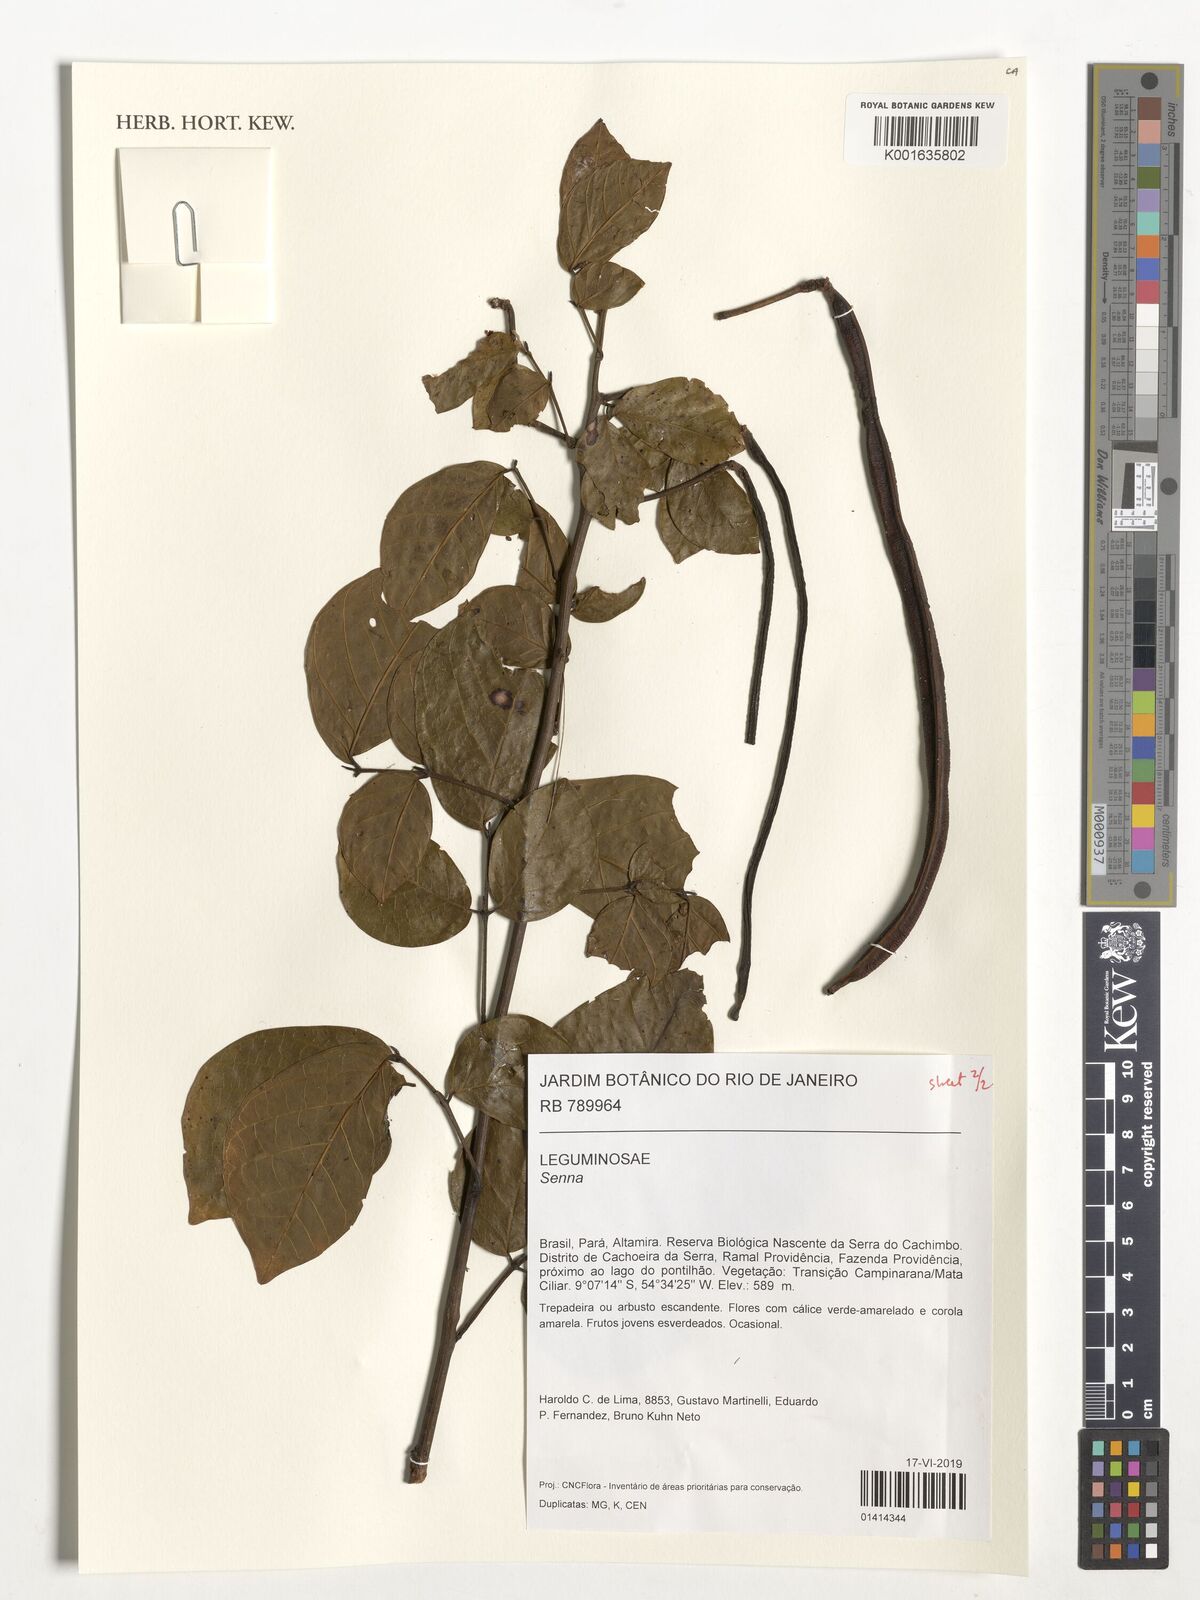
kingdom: Plantae
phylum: Tracheophyta
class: Magnoliopsida
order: Fabales
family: Fabaceae
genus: Senna
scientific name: Senna
